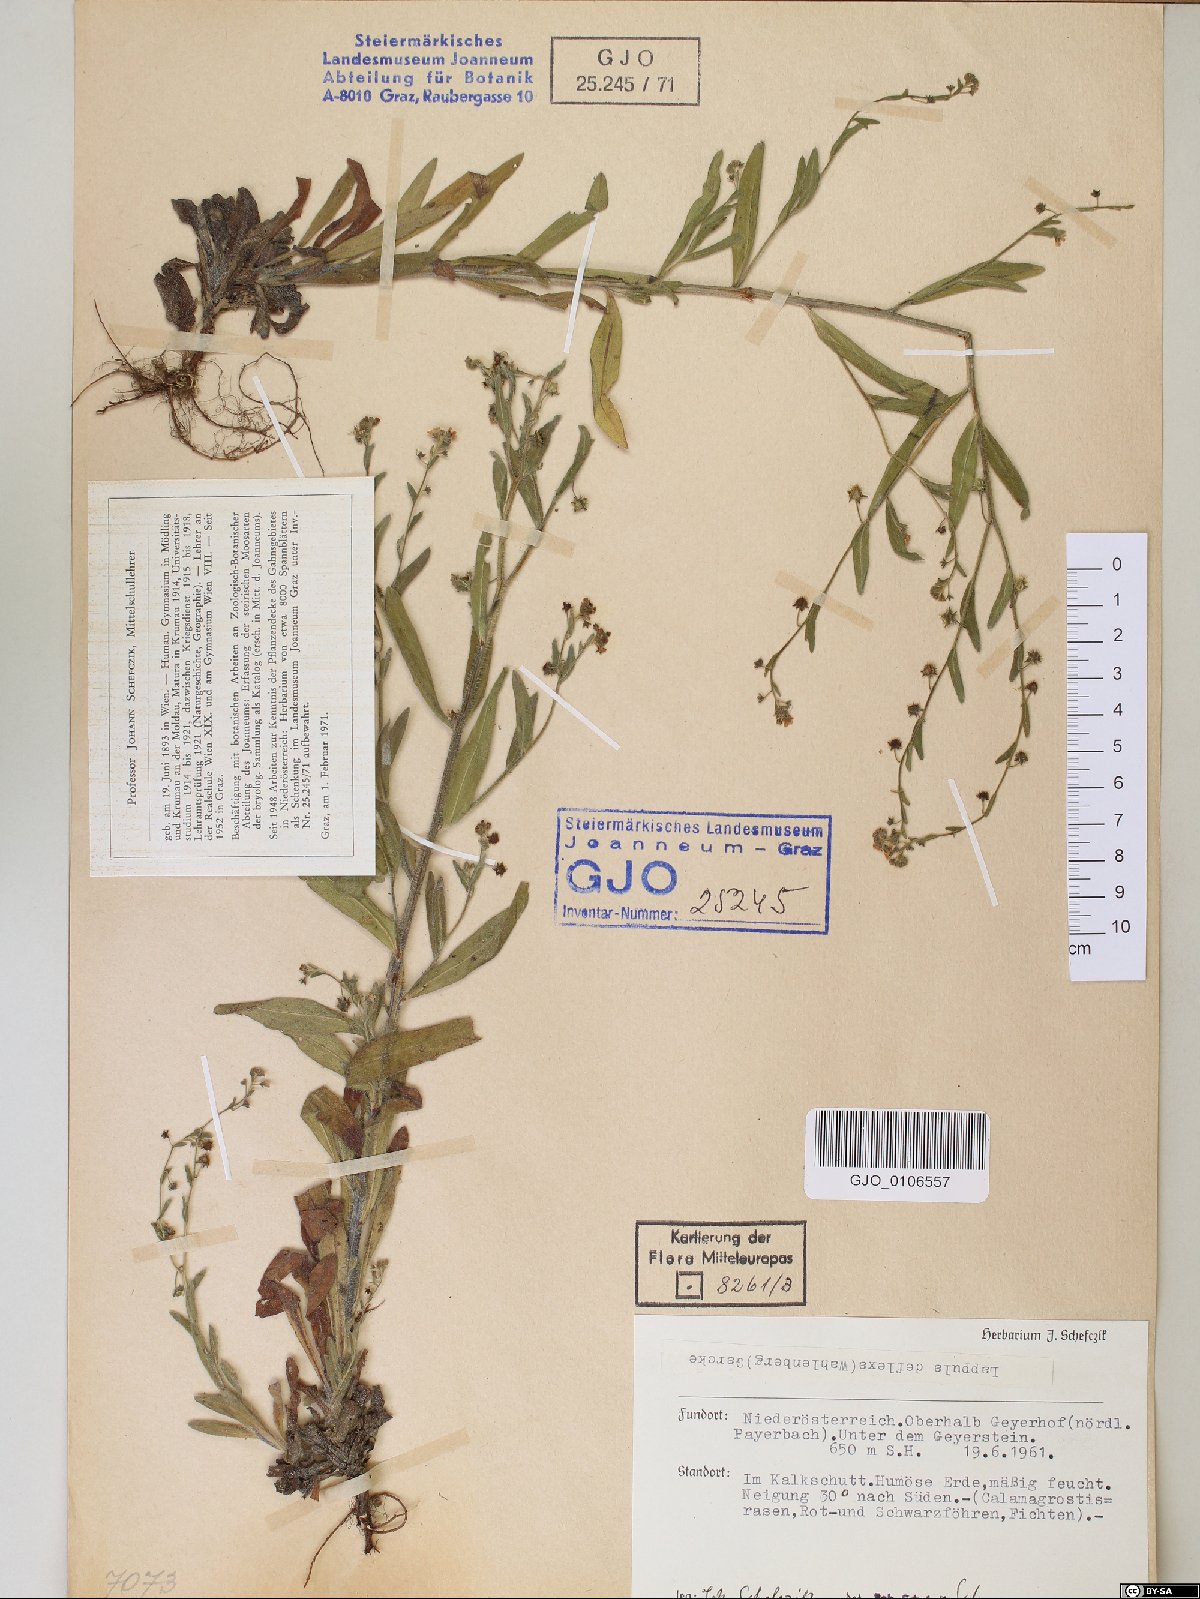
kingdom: Plantae
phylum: Tracheophyta
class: Magnoliopsida
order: Boraginales
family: Boraginaceae
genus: Hackelia
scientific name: Hackelia deflexa
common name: Nodding stickseed
